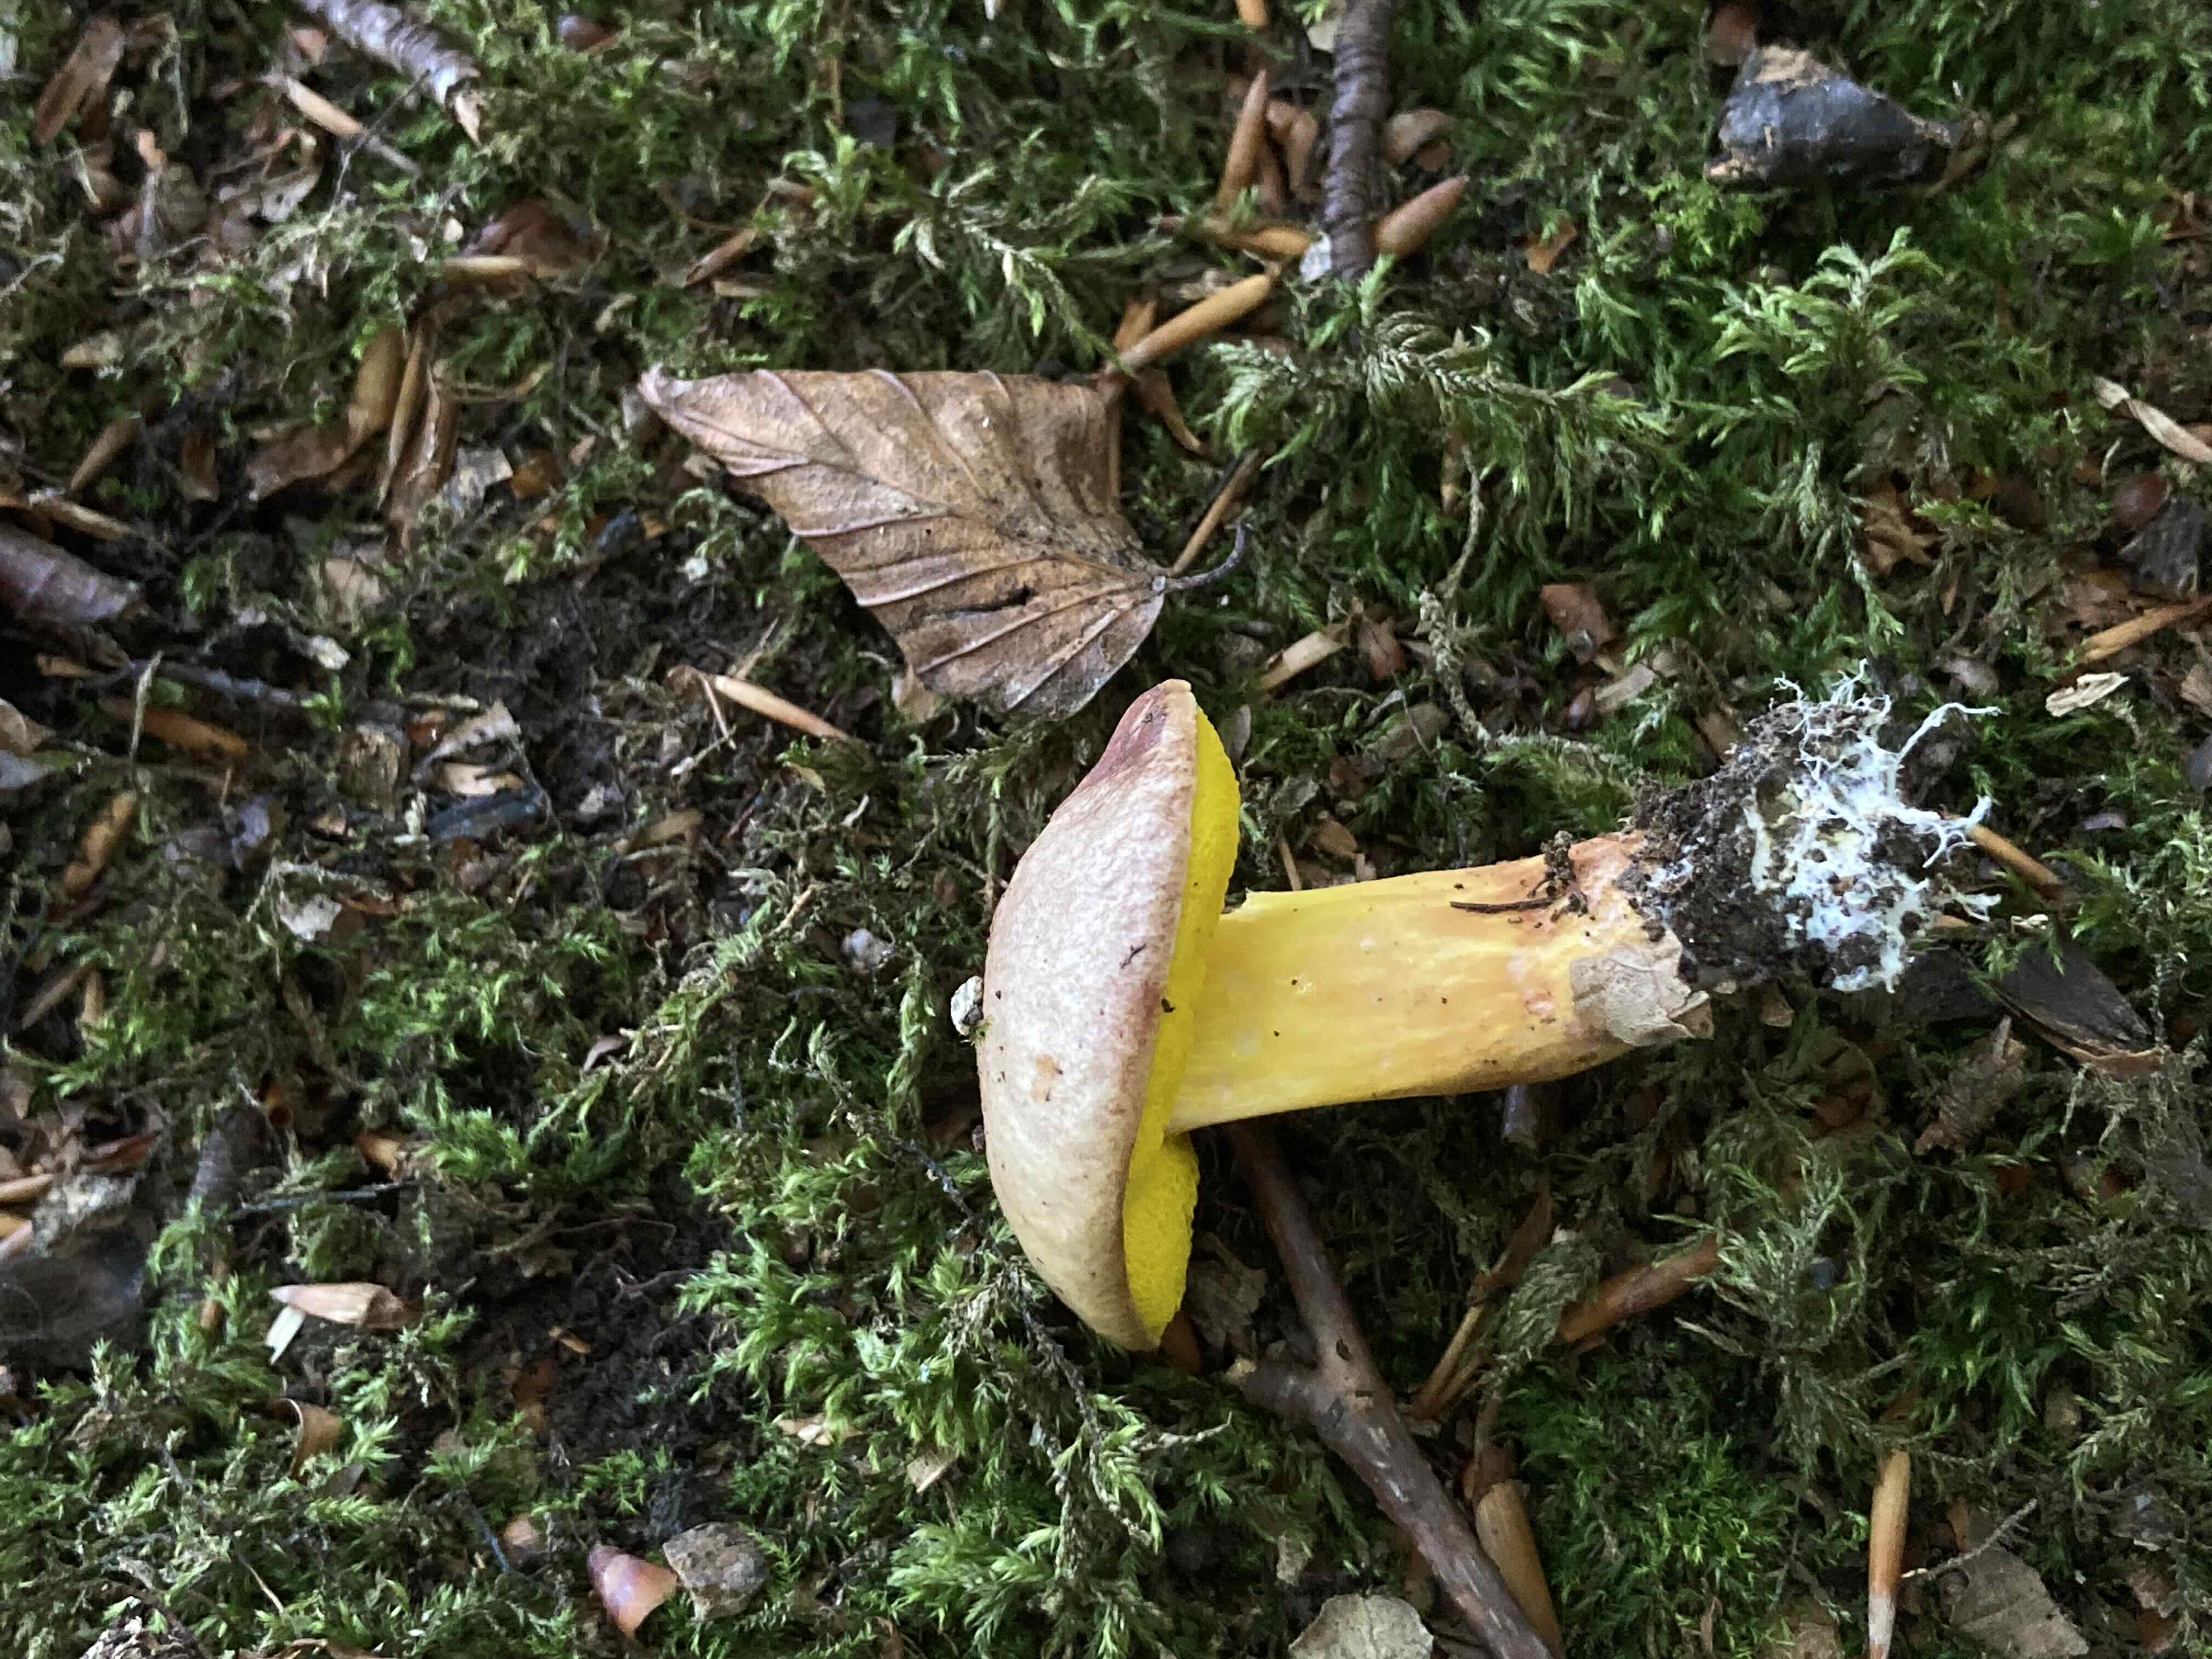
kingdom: Fungi
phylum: Basidiomycota
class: Agaricomycetes
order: Boletales
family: Boletaceae
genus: Aureoboletus
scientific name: Aureoboletus gentilis
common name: guldrørhat
